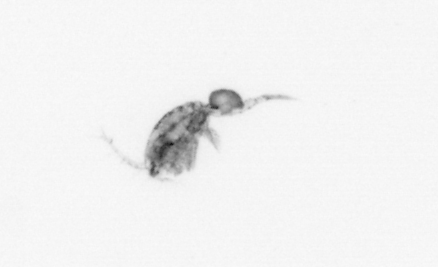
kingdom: Animalia
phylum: Arthropoda
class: Copepoda
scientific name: Copepoda
